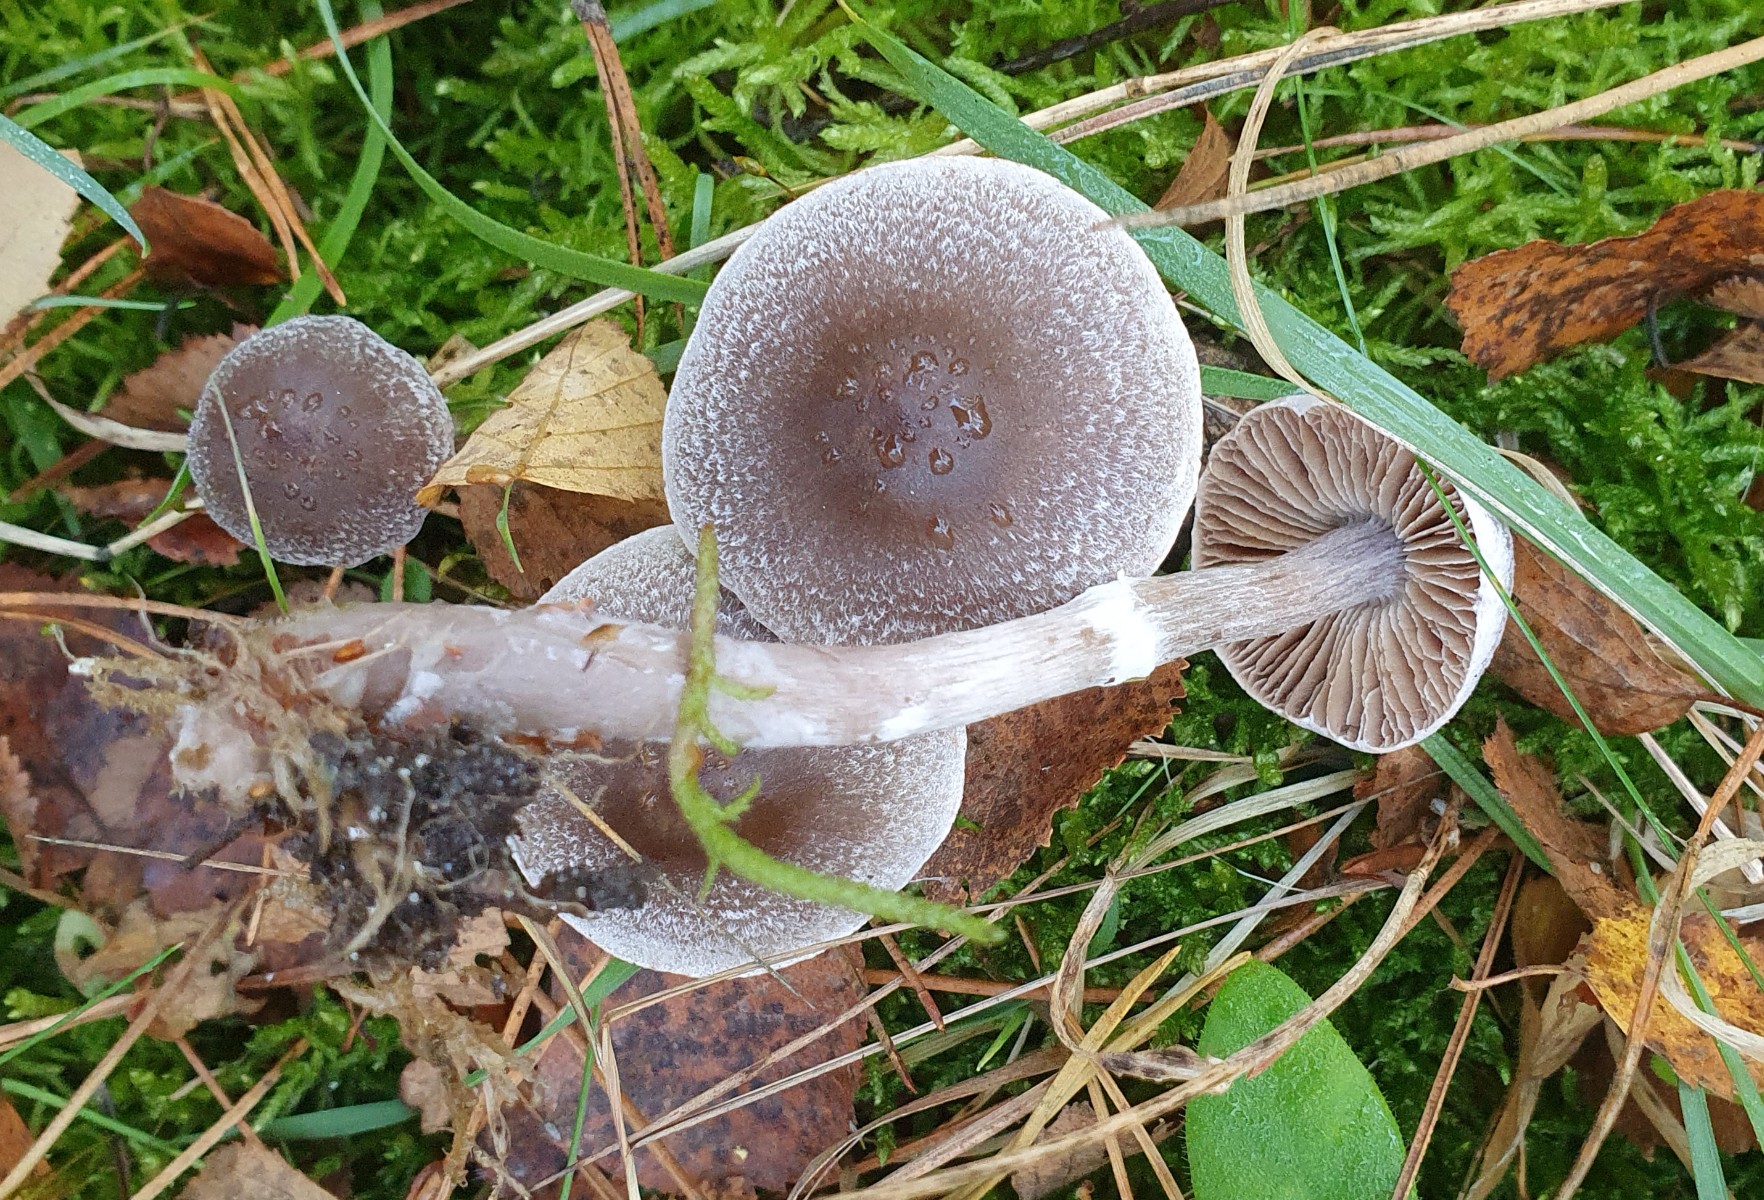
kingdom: Fungi
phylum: Basidiomycota
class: Agaricomycetes
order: Agaricales
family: Cortinariaceae
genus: Cortinarius
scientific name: Cortinarius hemitrichus
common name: hvidfnugget slørhat
